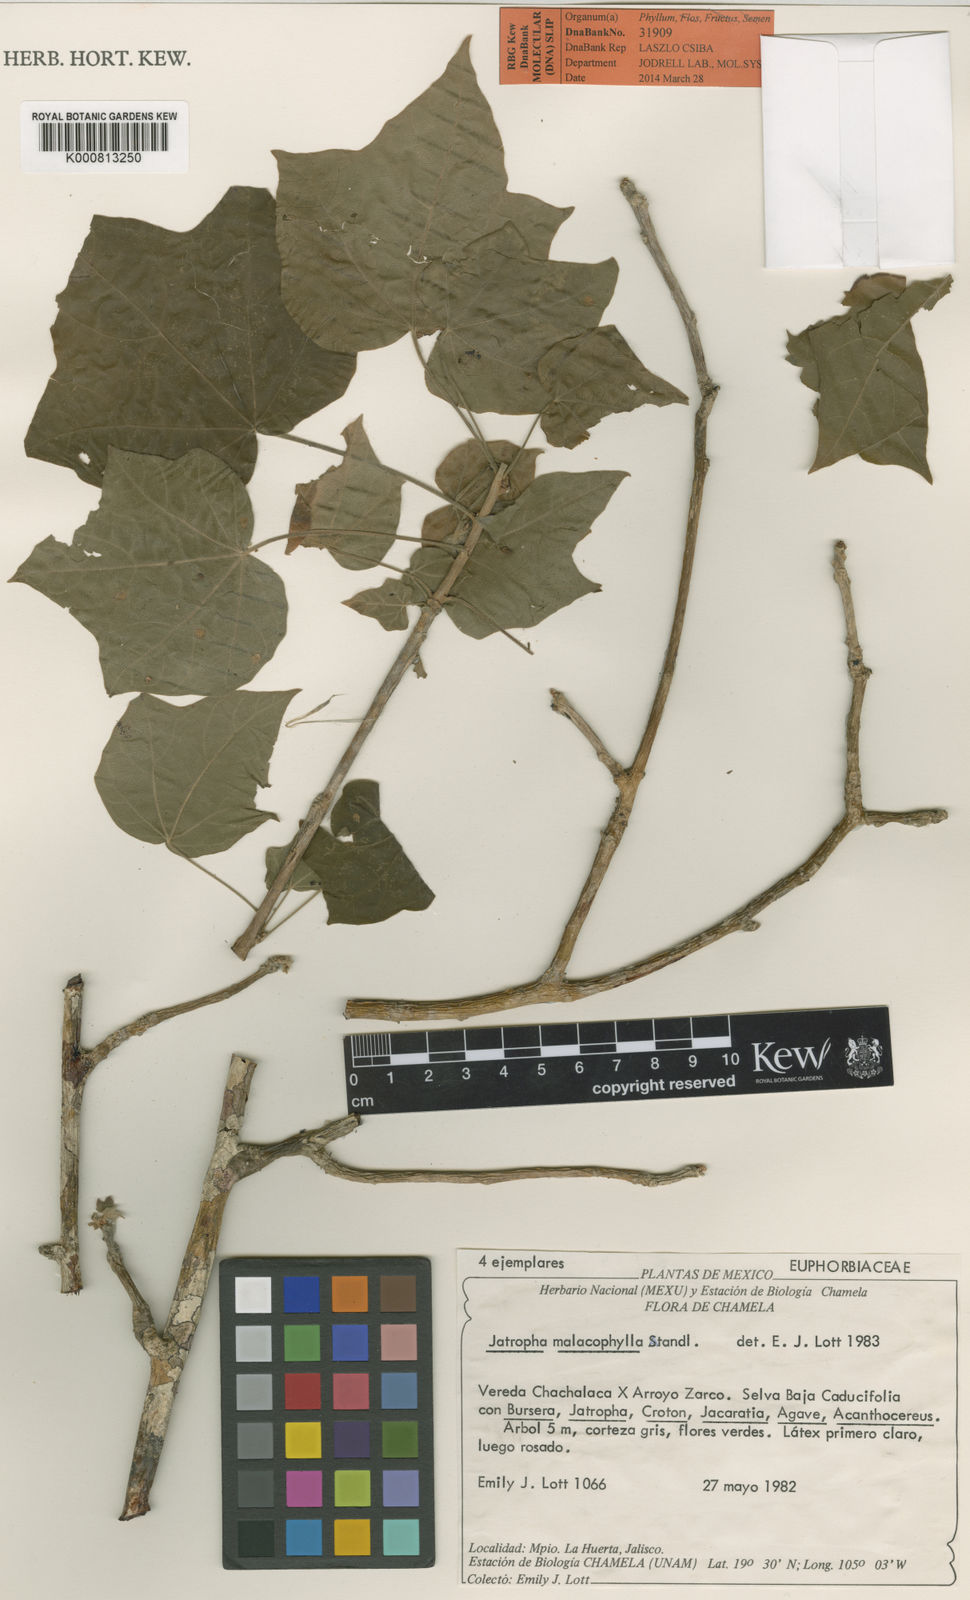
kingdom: Plantae
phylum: Tracheophyta
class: Magnoliopsida
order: Malpighiales
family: Euphorbiaceae
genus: Jatropha
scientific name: Jatropha malacophylla
